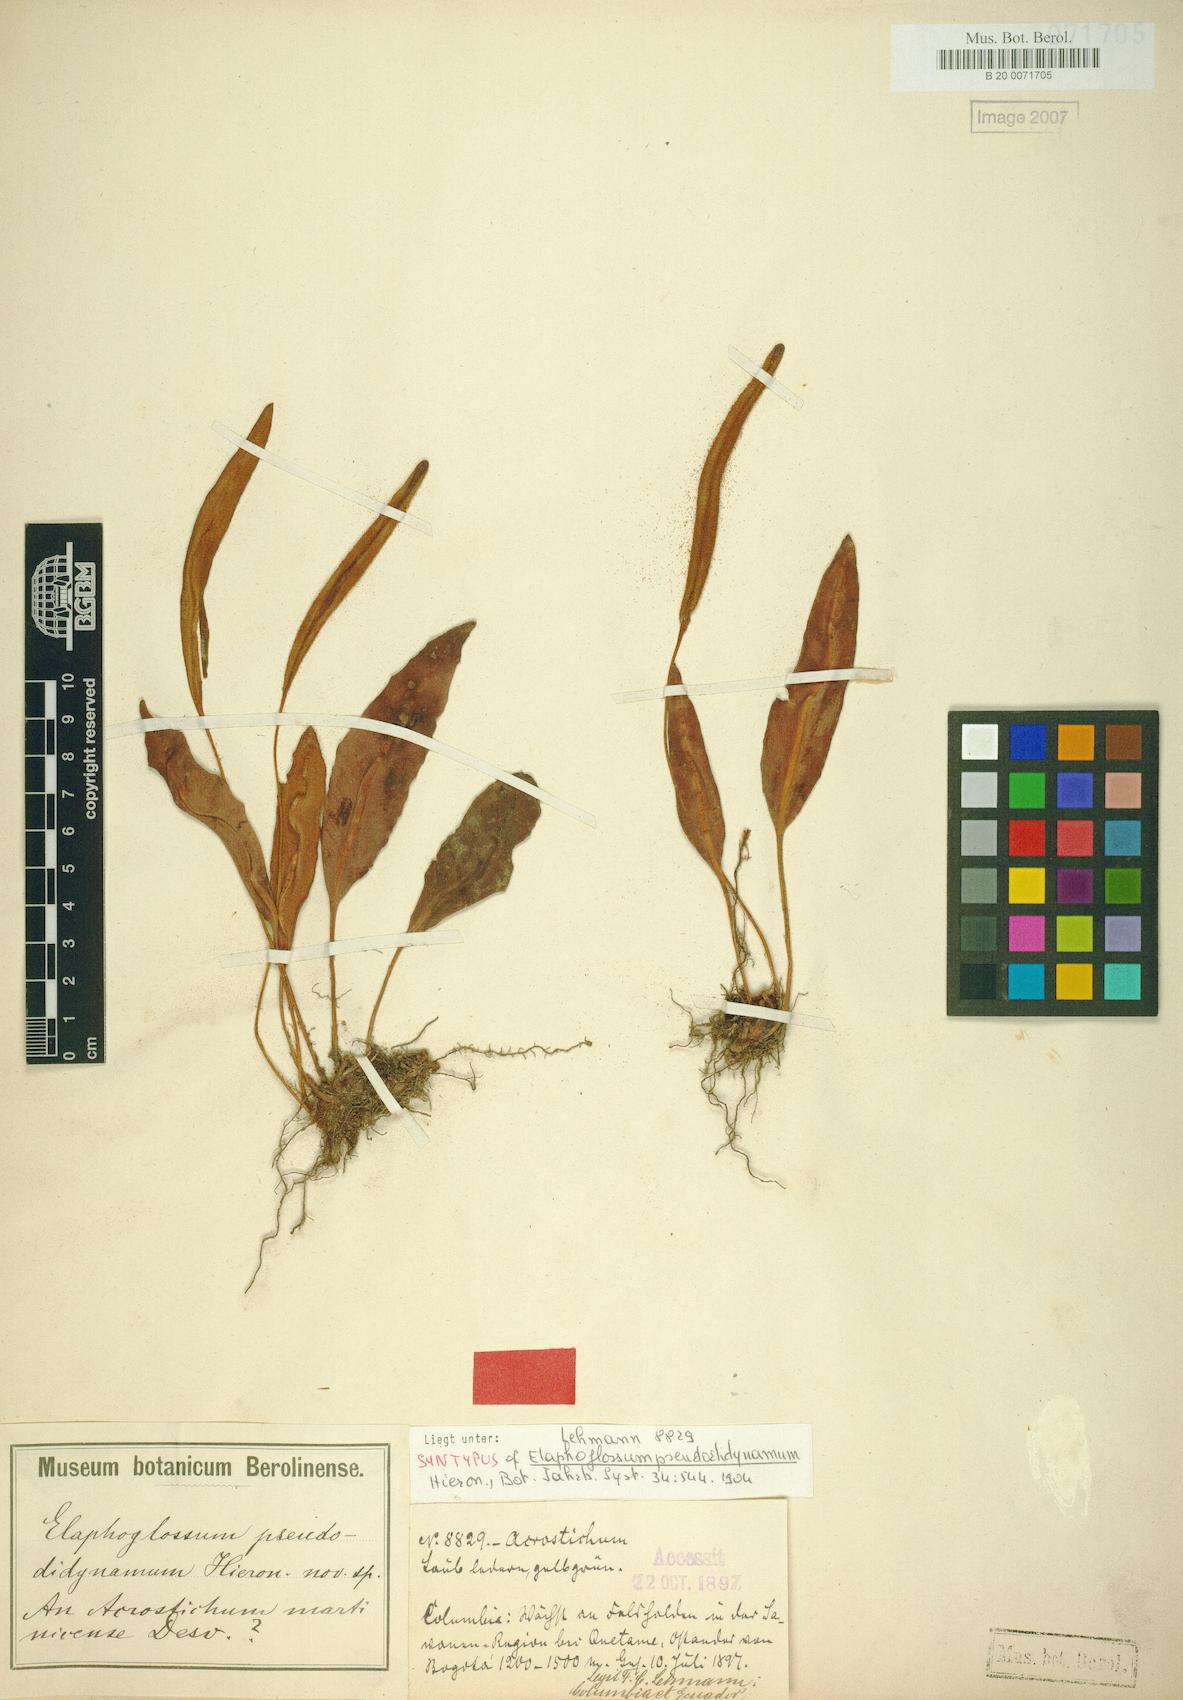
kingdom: Plantae
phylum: Tracheophyta
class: Polypodiopsida
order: Polypodiales
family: Dryopteridaceae
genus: Elaphoglossum
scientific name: Elaphoglossum pseudodidynamum
